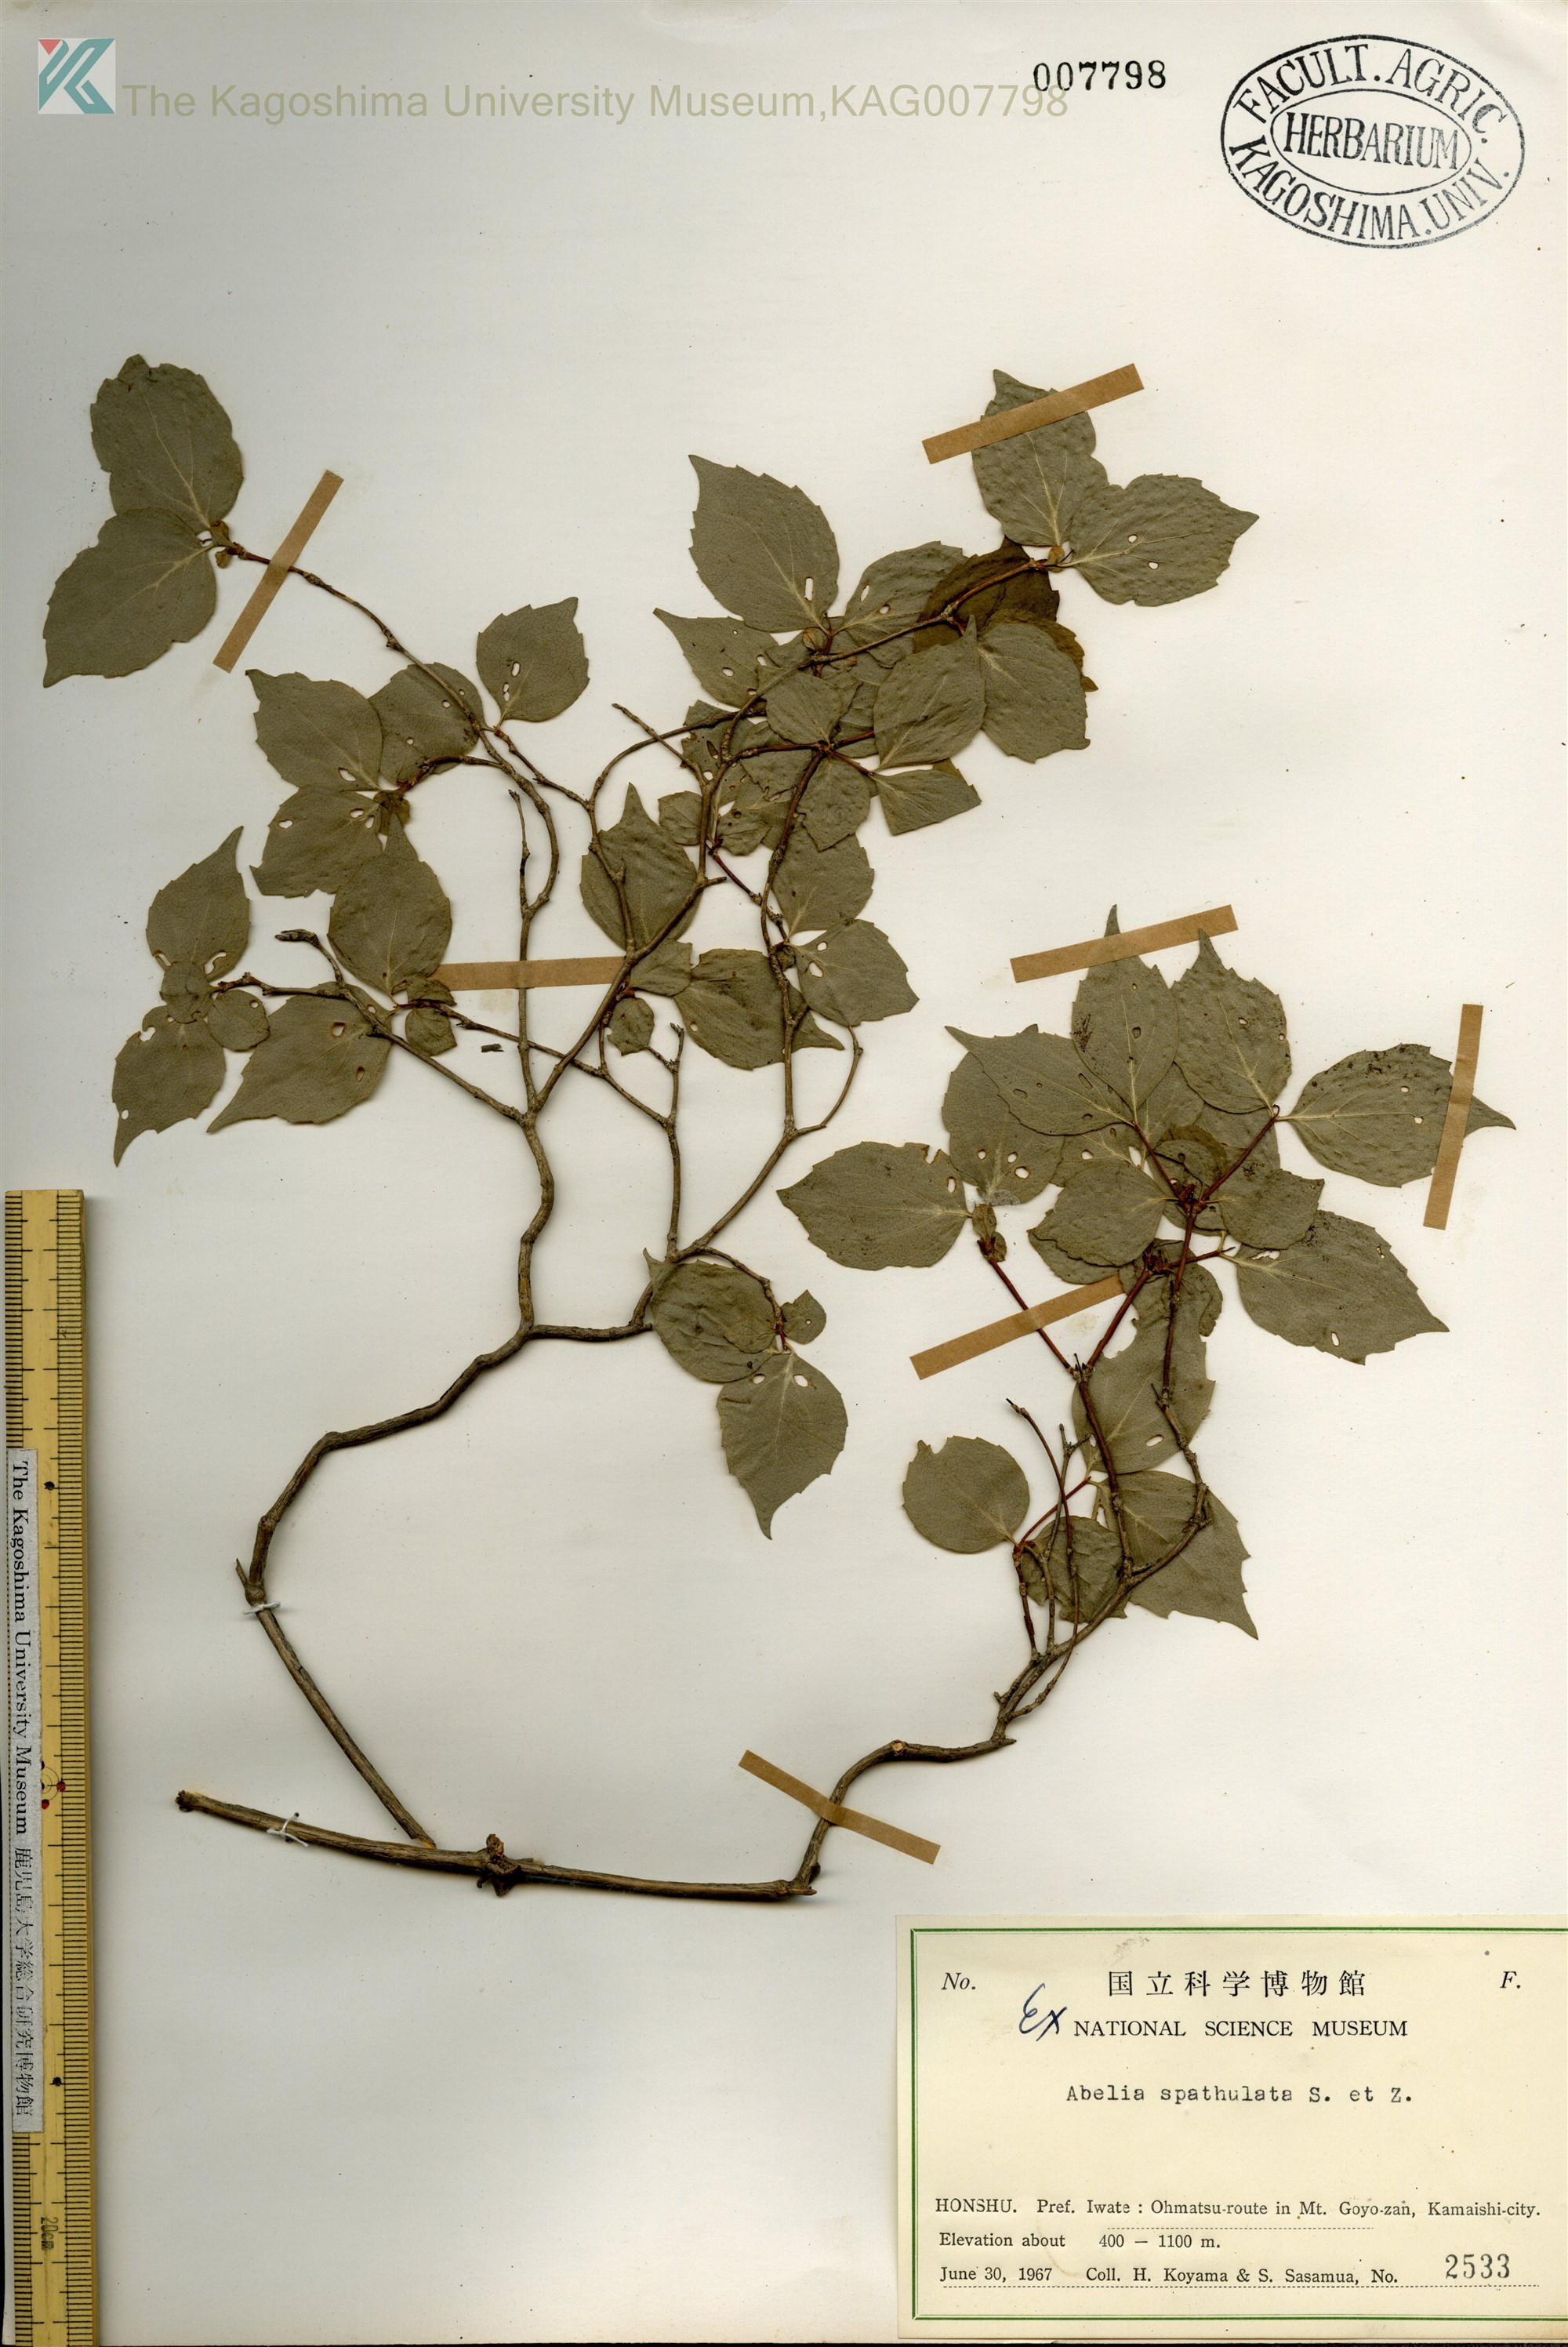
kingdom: Plantae
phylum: Tracheophyta
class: Magnoliopsida
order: Dipsacales
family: Caprifoliaceae
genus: Diabelia
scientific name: Diabelia spathulata
